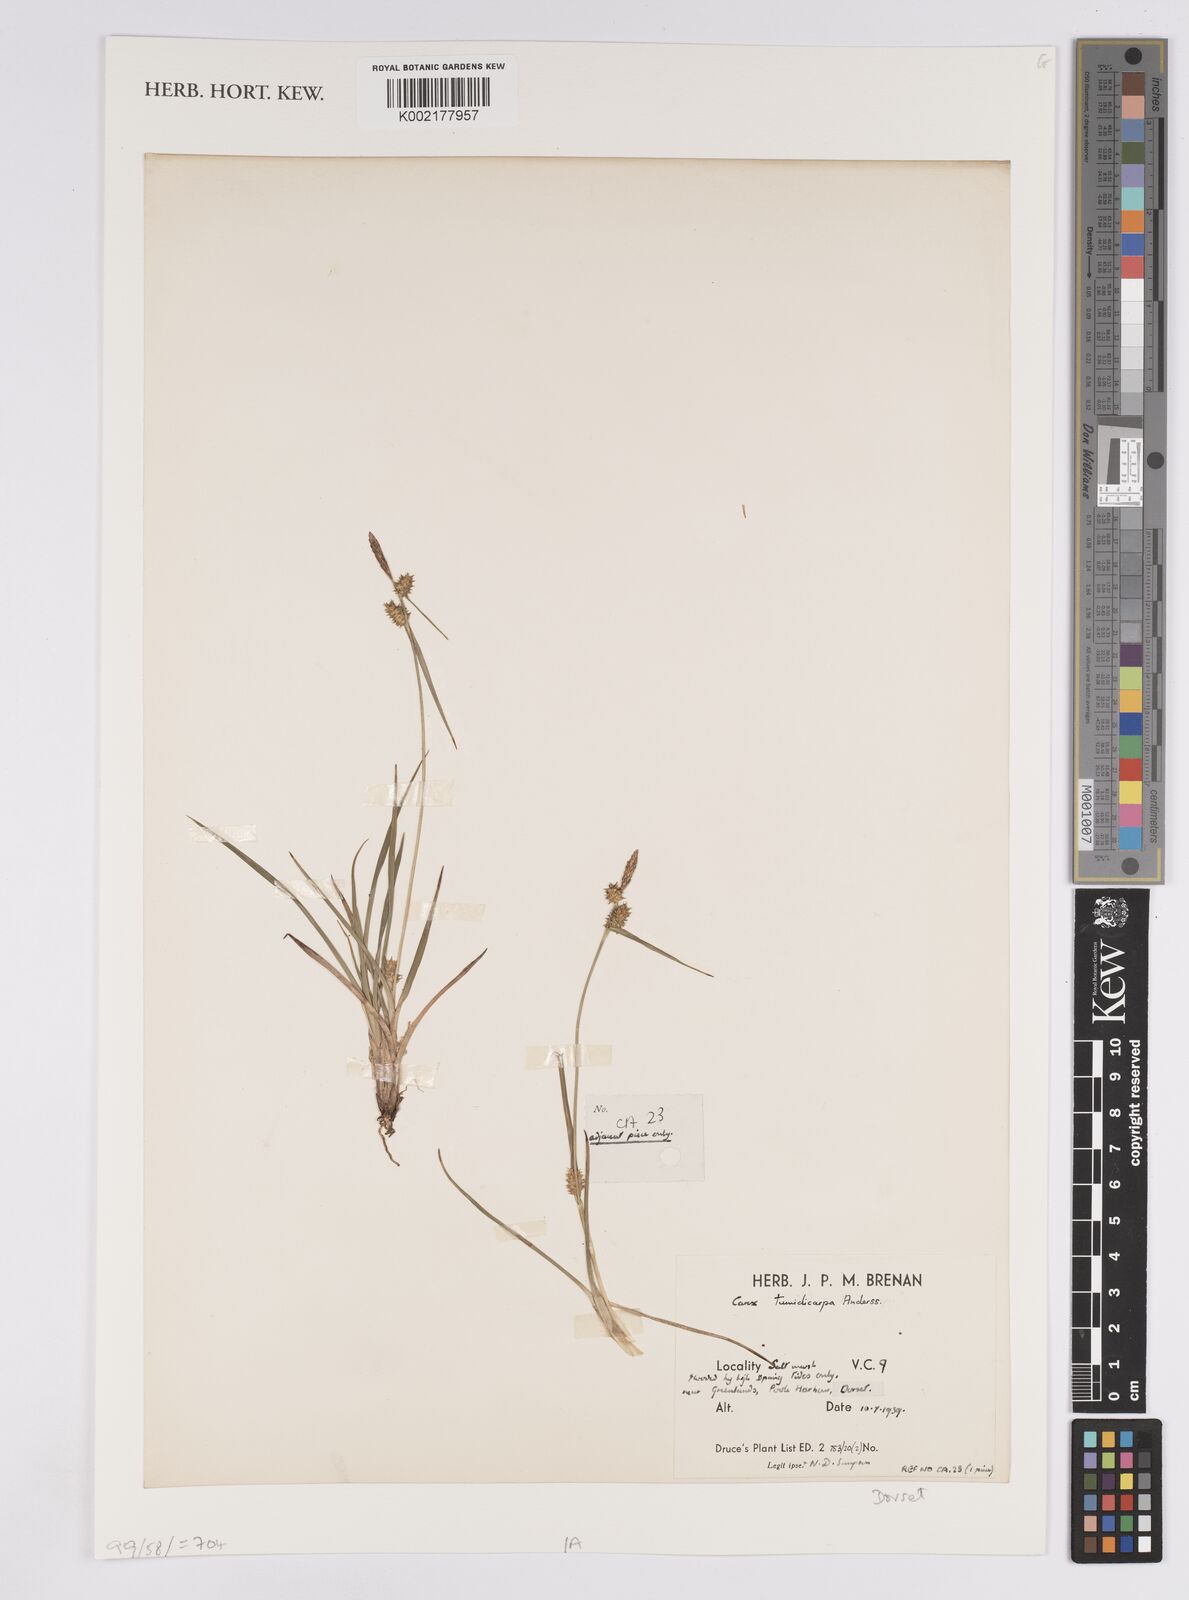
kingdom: Plantae
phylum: Tracheophyta
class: Liliopsida
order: Poales
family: Cyperaceae
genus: Carex
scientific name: Carex demissa
